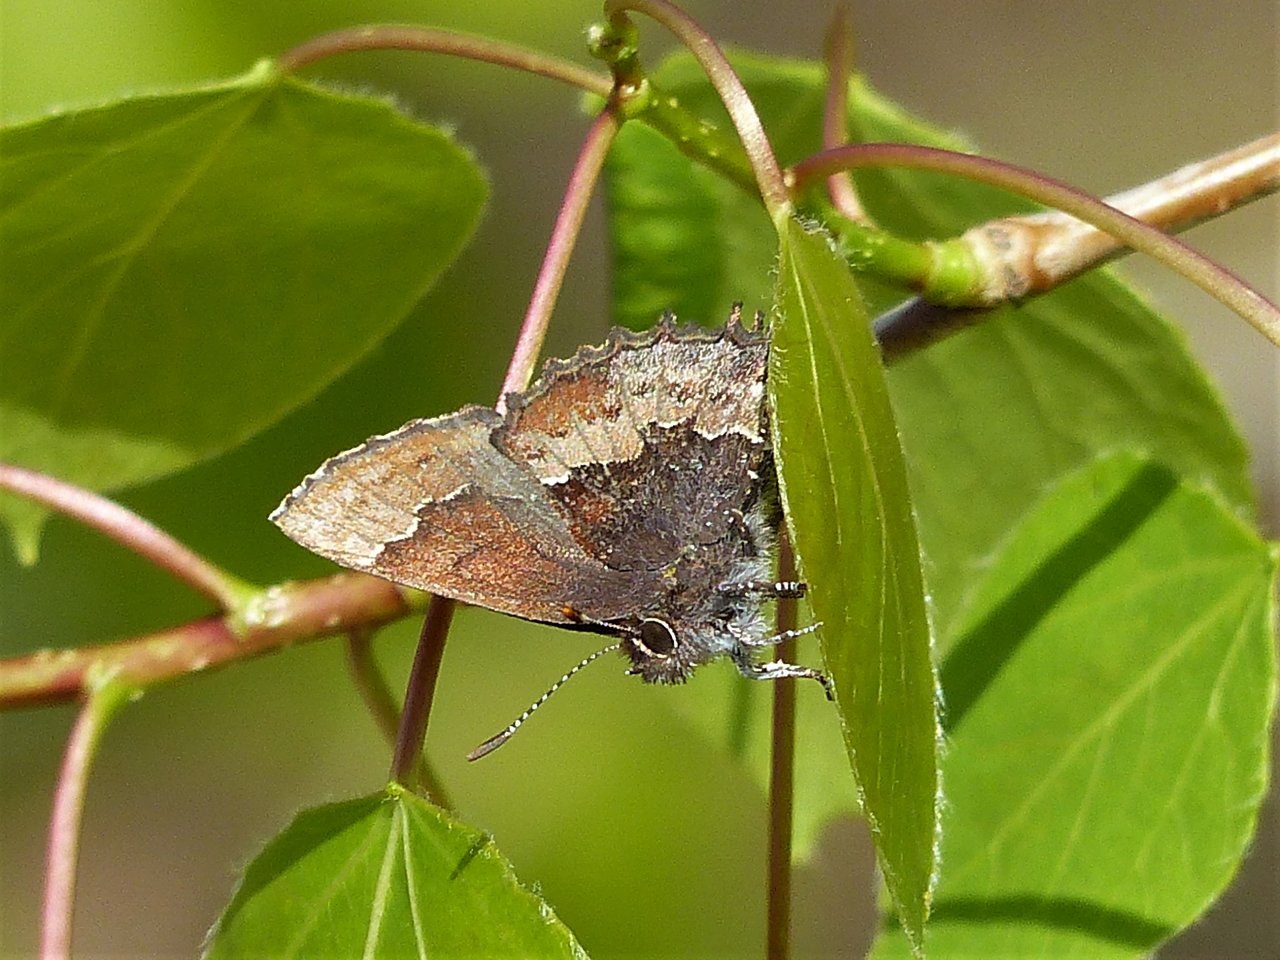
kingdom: Animalia
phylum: Arthropoda
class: Insecta
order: Lepidoptera
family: Lycaenidae
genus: Incisalia
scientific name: Incisalia henrici
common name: Henry's Elfin
